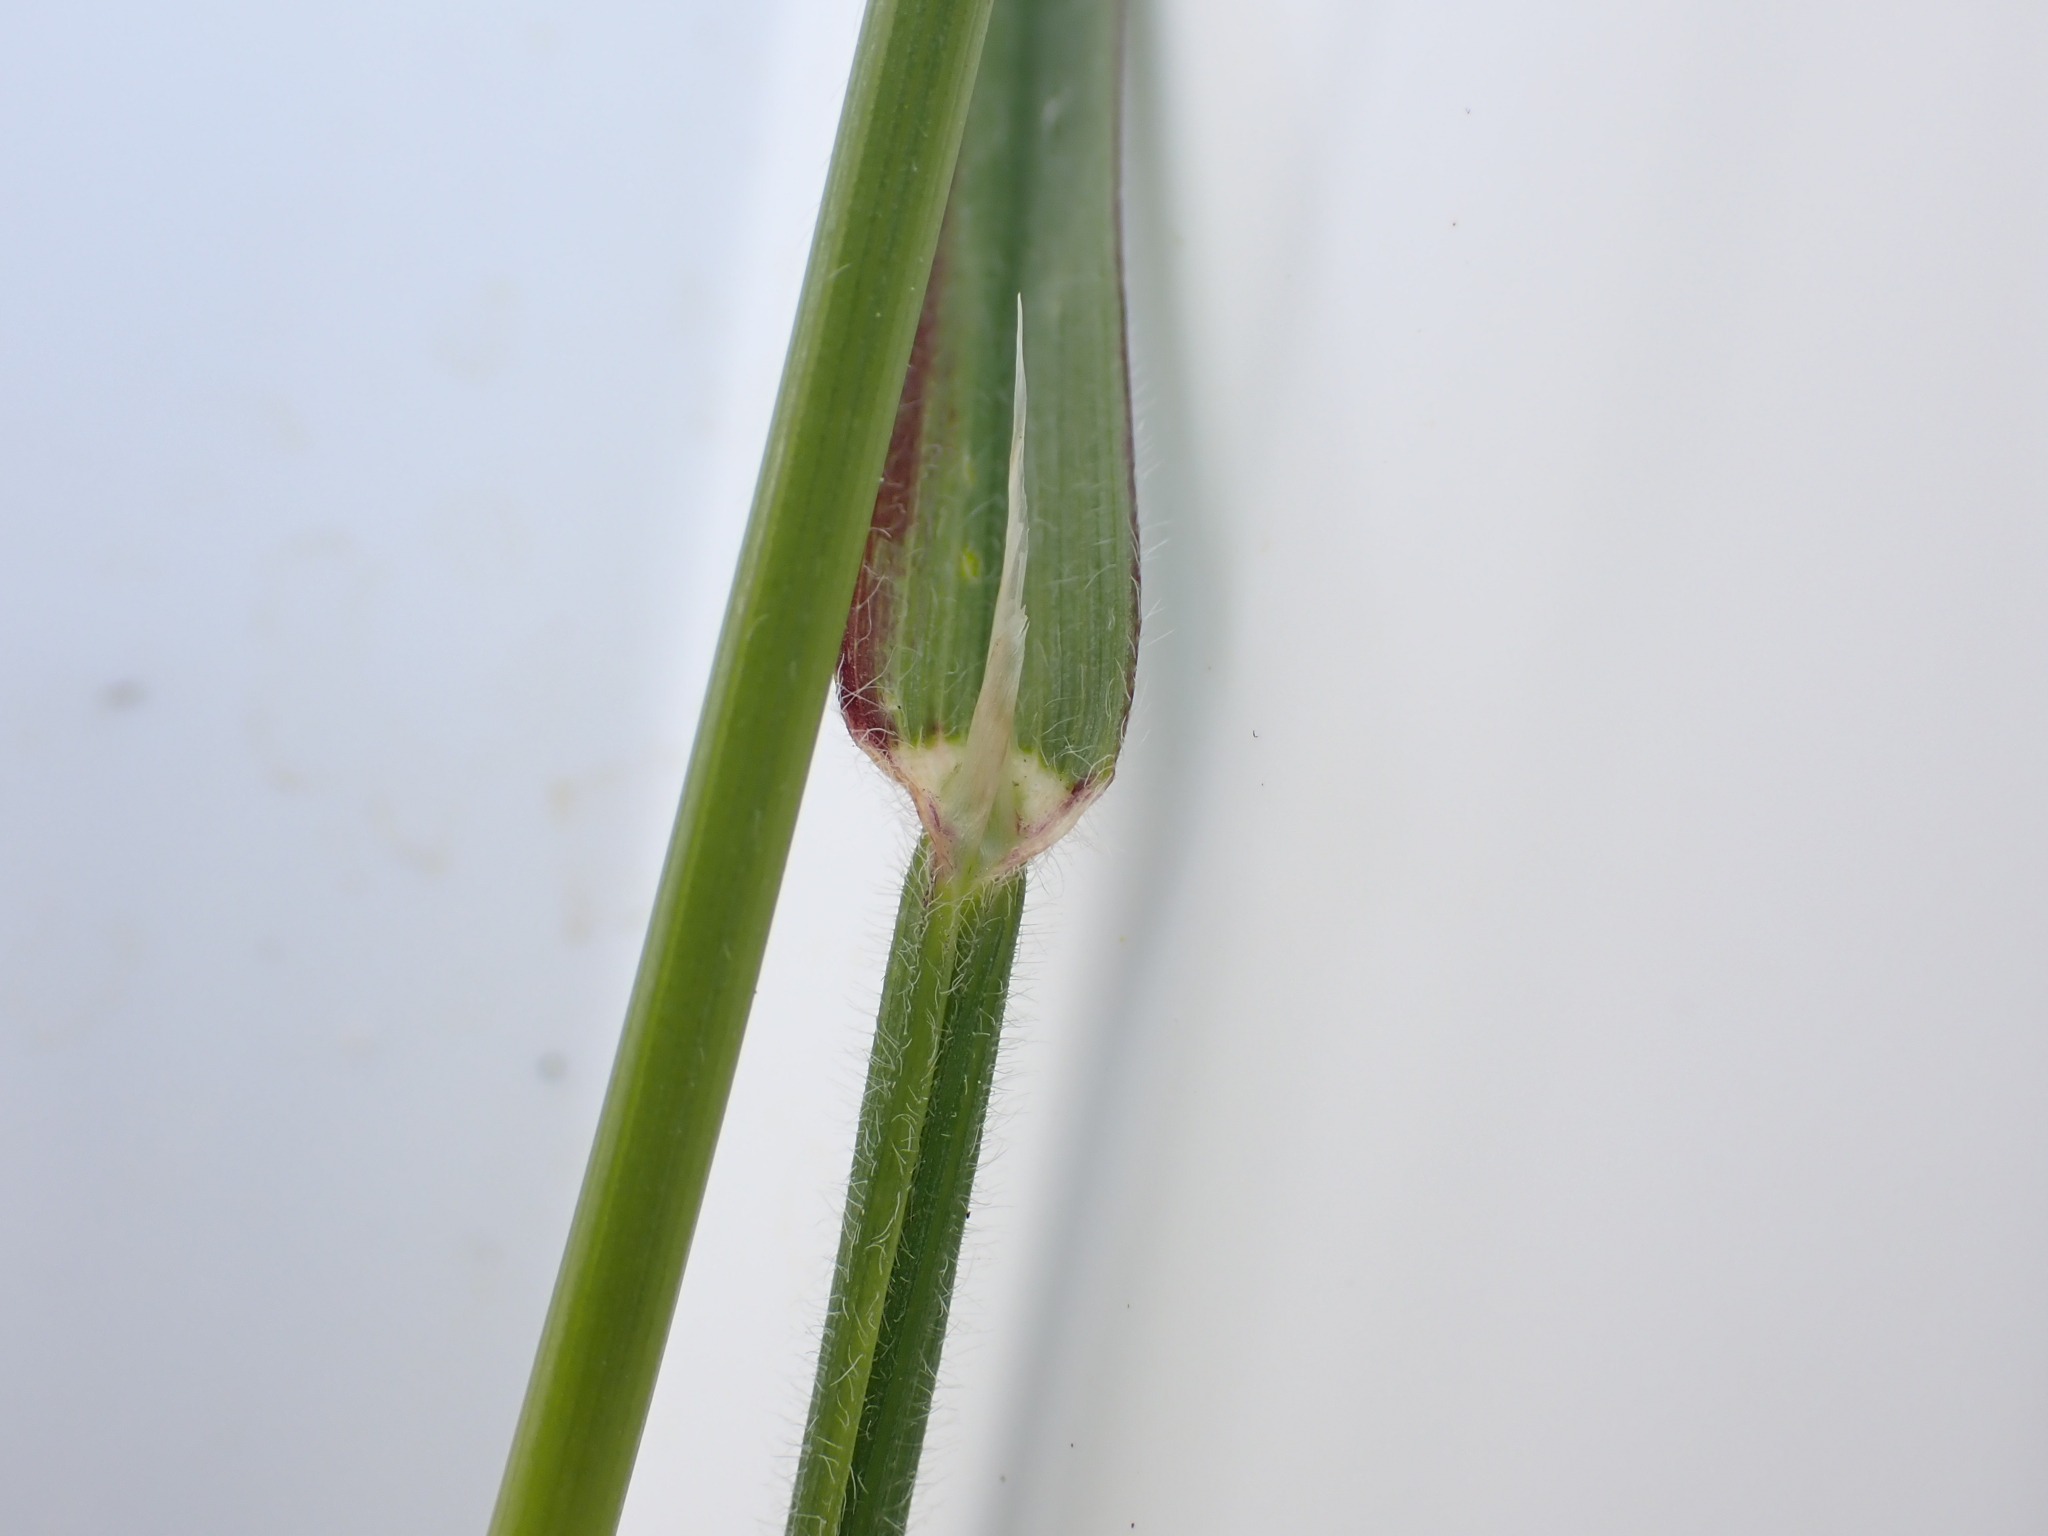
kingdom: Plantae
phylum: Tracheophyta
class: Liliopsida
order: Poales
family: Poaceae
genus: Avenula
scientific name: Avenula pubescens
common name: Dunet havre
